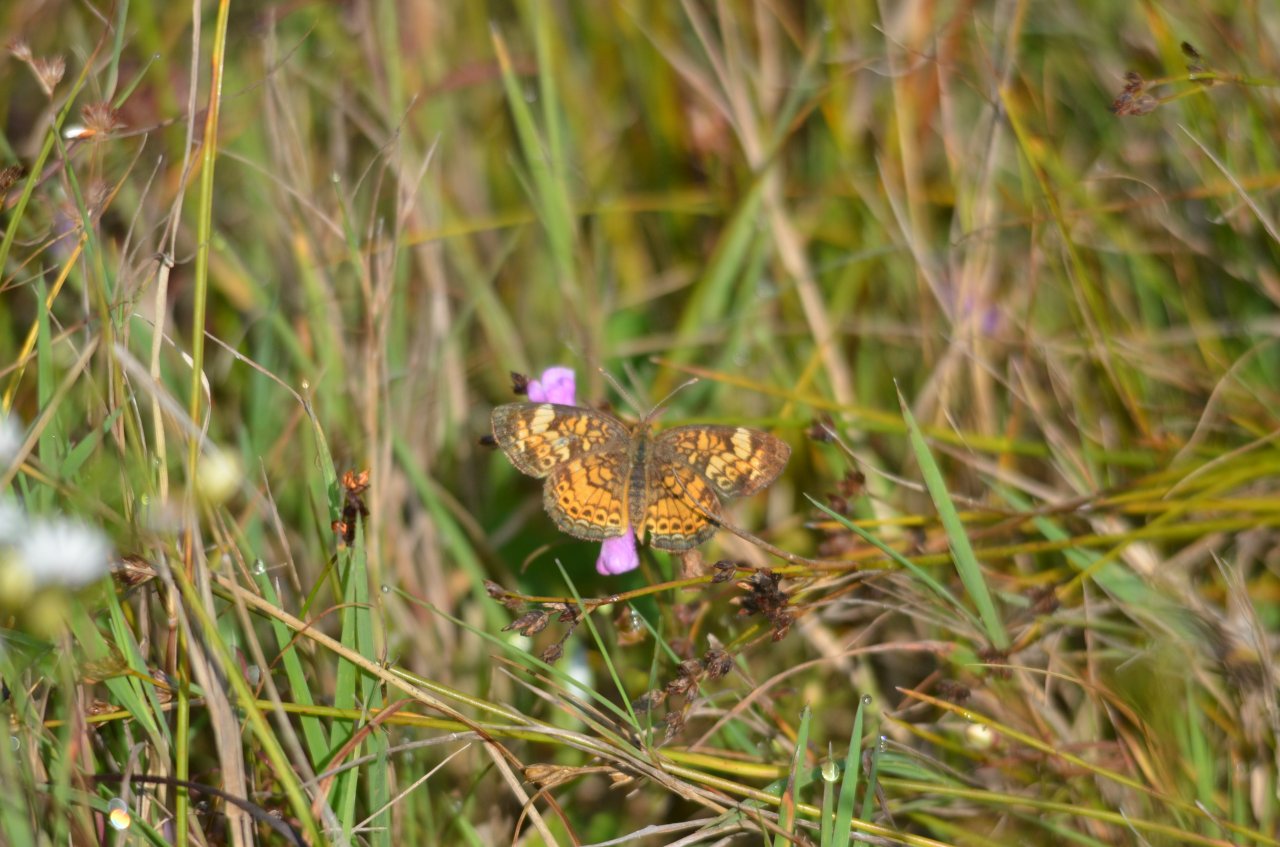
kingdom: Animalia
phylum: Arthropoda
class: Insecta
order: Lepidoptera
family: Nymphalidae
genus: Phyciodes
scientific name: Phyciodes tharos
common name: Northern Crescent
